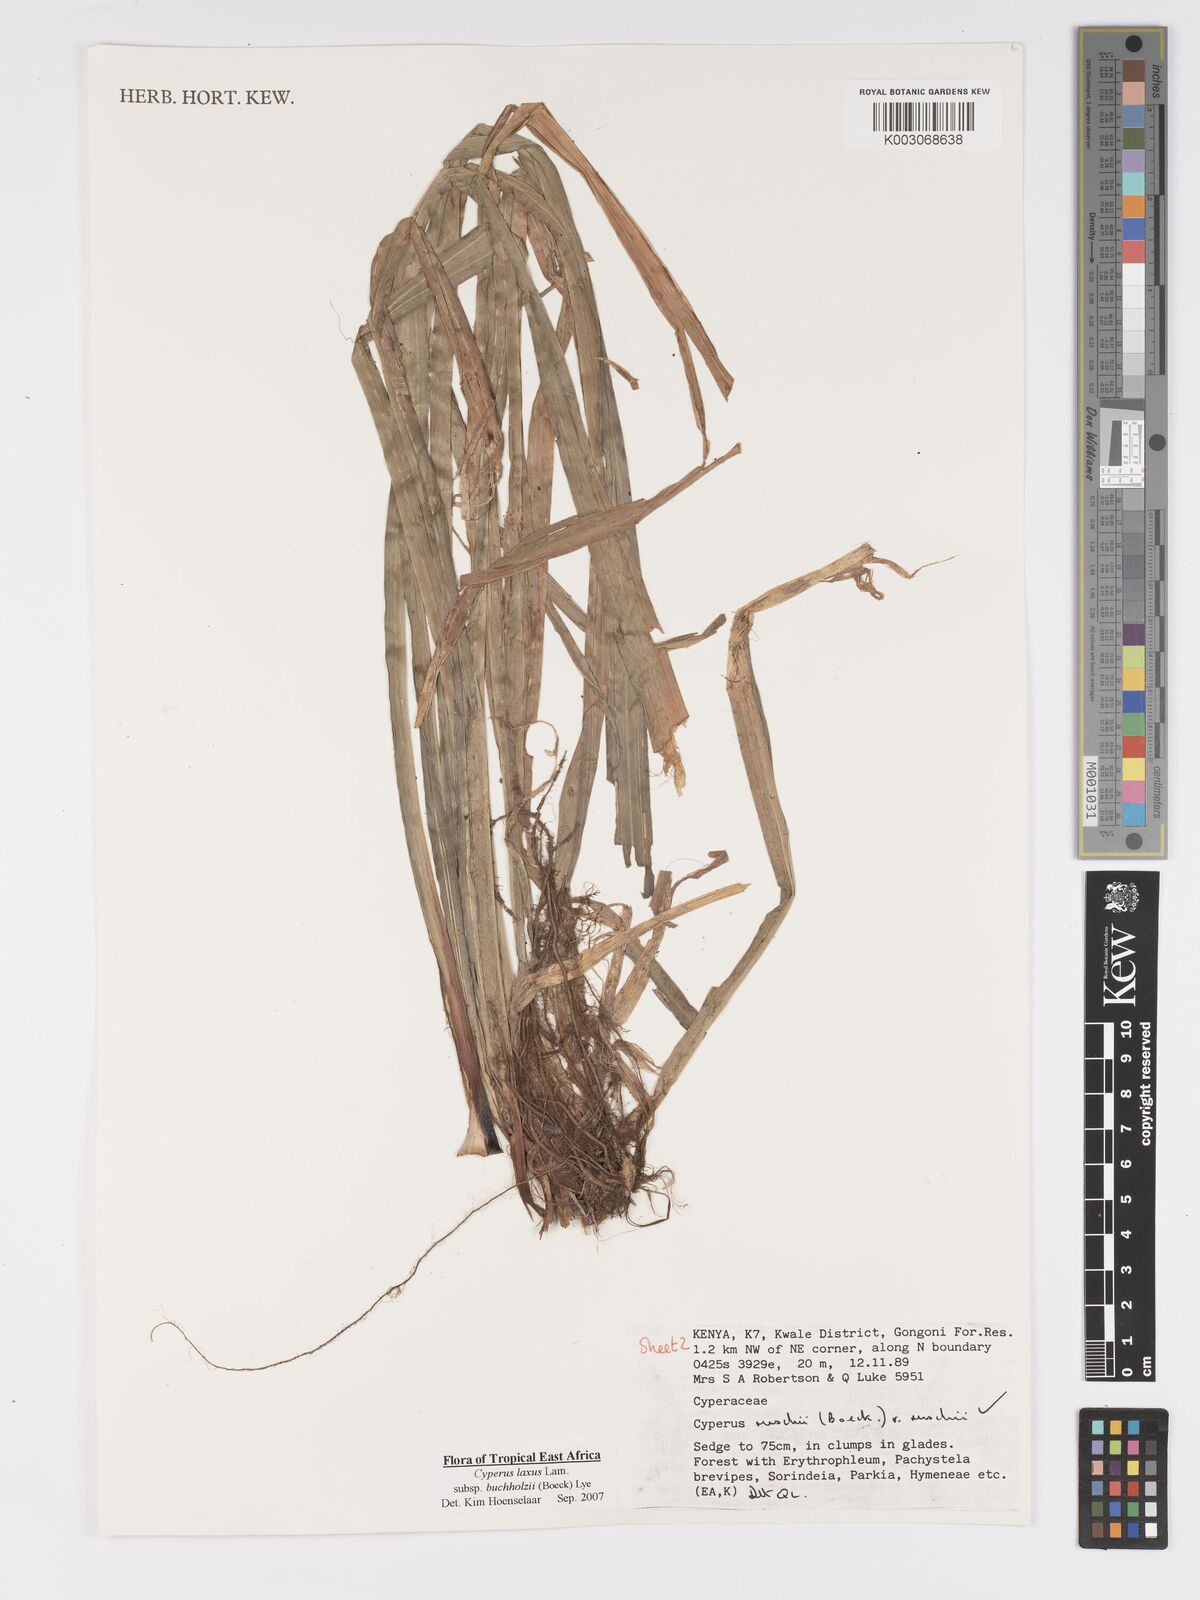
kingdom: Plantae
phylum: Tracheophyta
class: Liliopsida
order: Poales
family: Cyperaceae
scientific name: Cyperaceae
